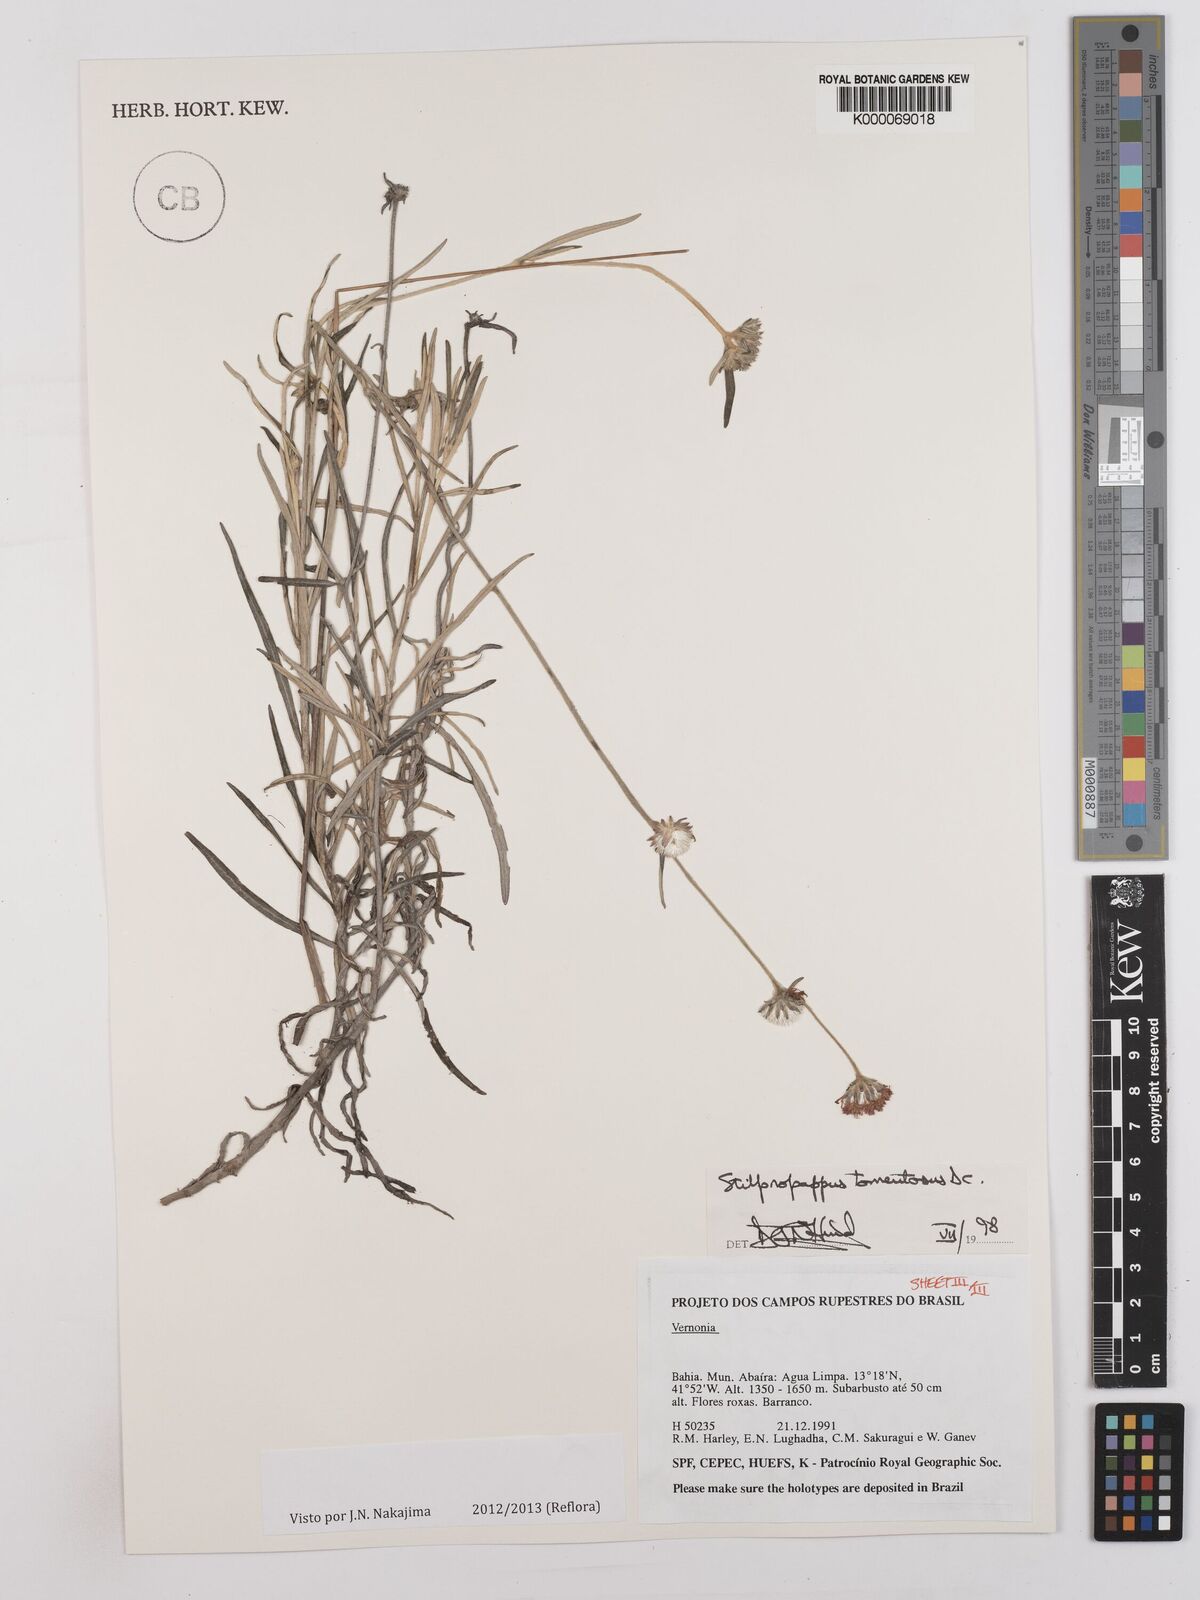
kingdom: Plantae
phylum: Tracheophyta
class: Magnoliopsida
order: Asterales
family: Asteraceae
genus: Stilpnopappus
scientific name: Stilpnopappus tomentosus
